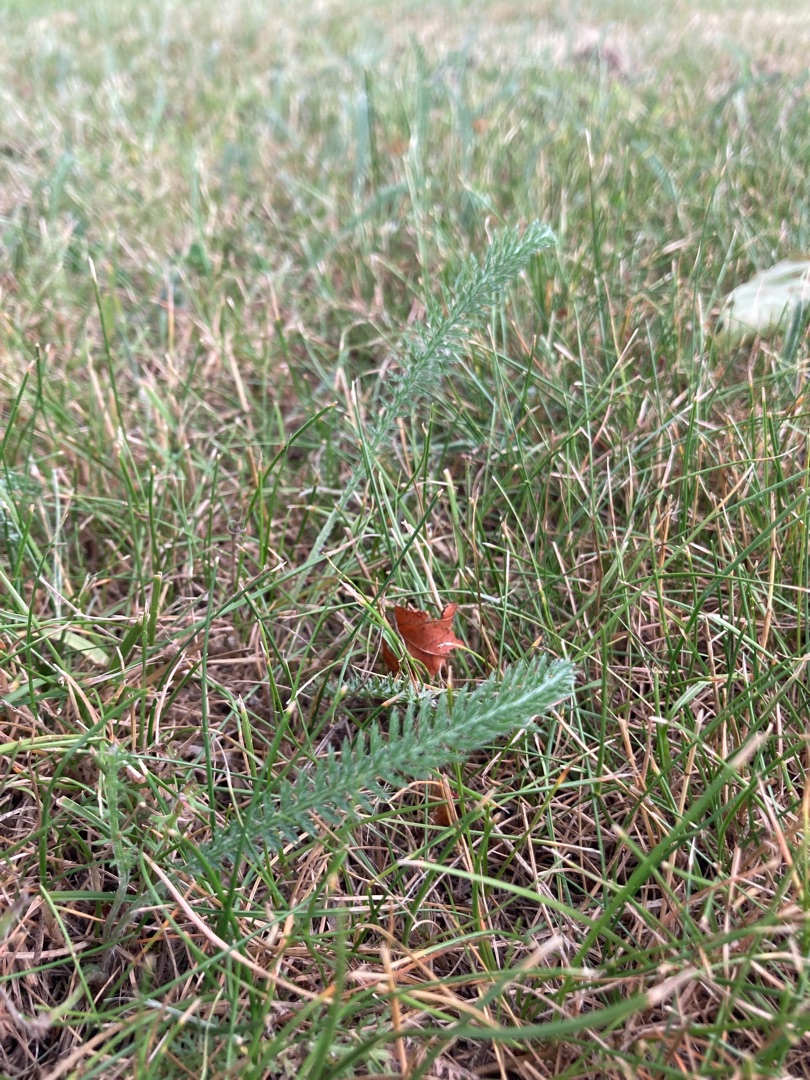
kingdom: Plantae
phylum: Tracheophyta
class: Magnoliopsida
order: Asterales
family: Asteraceae
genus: Achillea
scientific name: Achillea millefolium
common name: Almindelig røllike
